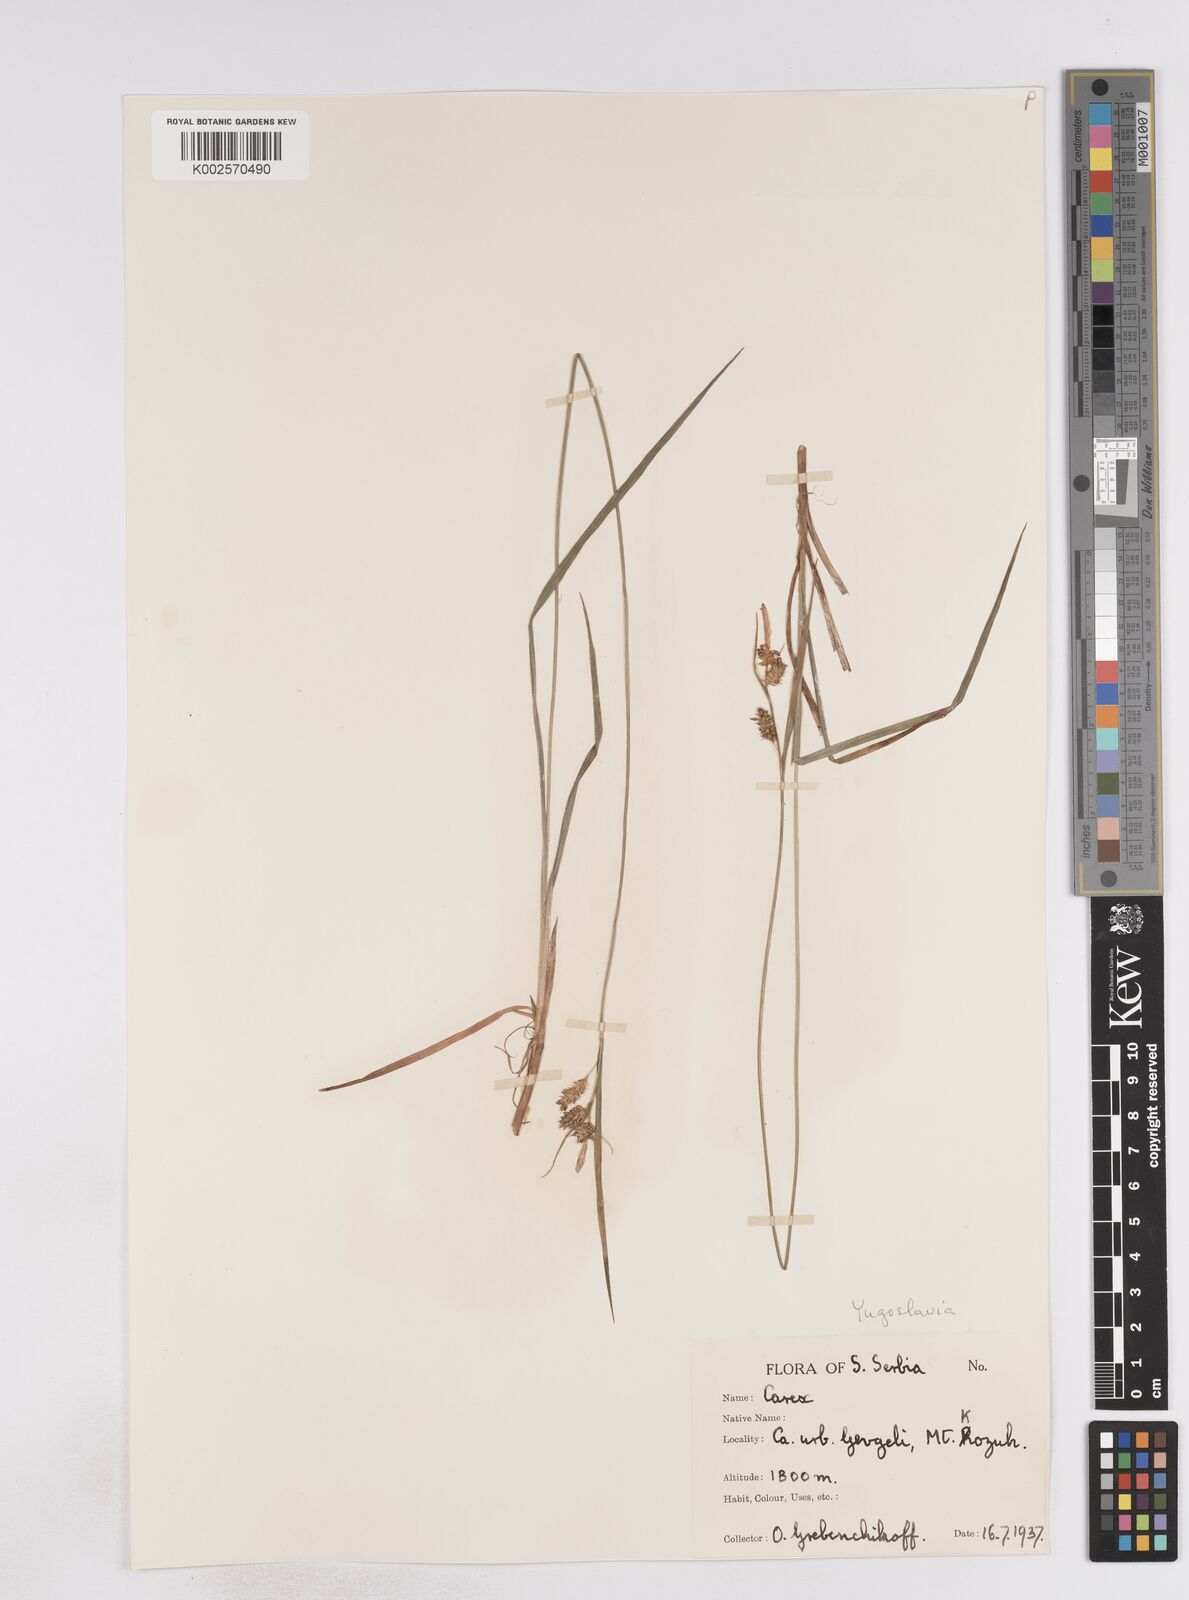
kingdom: Plantae
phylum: Tracheophyta
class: Liliopsida
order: Poales
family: Cyperaceae
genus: Carex
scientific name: Carex pallescens
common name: Pale sedge
